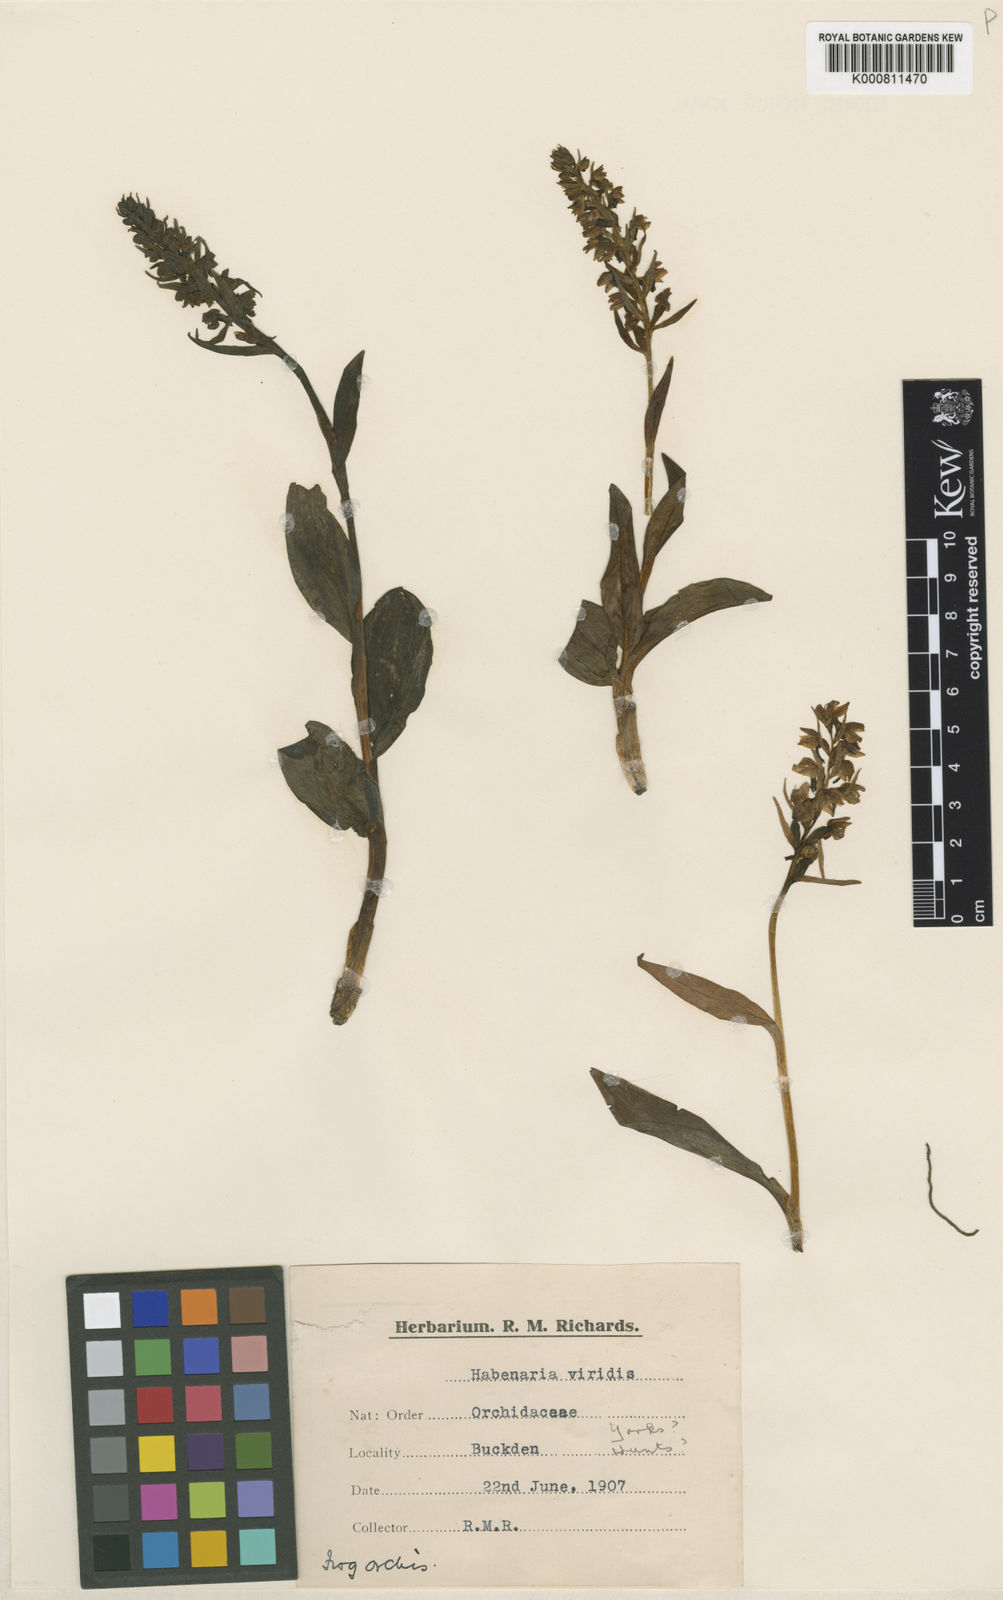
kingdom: Plantae
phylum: Tracheophyta
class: Liliopsida
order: Asparagales
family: Orchidaceae
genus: Dactylorhiza
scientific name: Dactylorhiza viridis
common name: Longbract frog orchid
